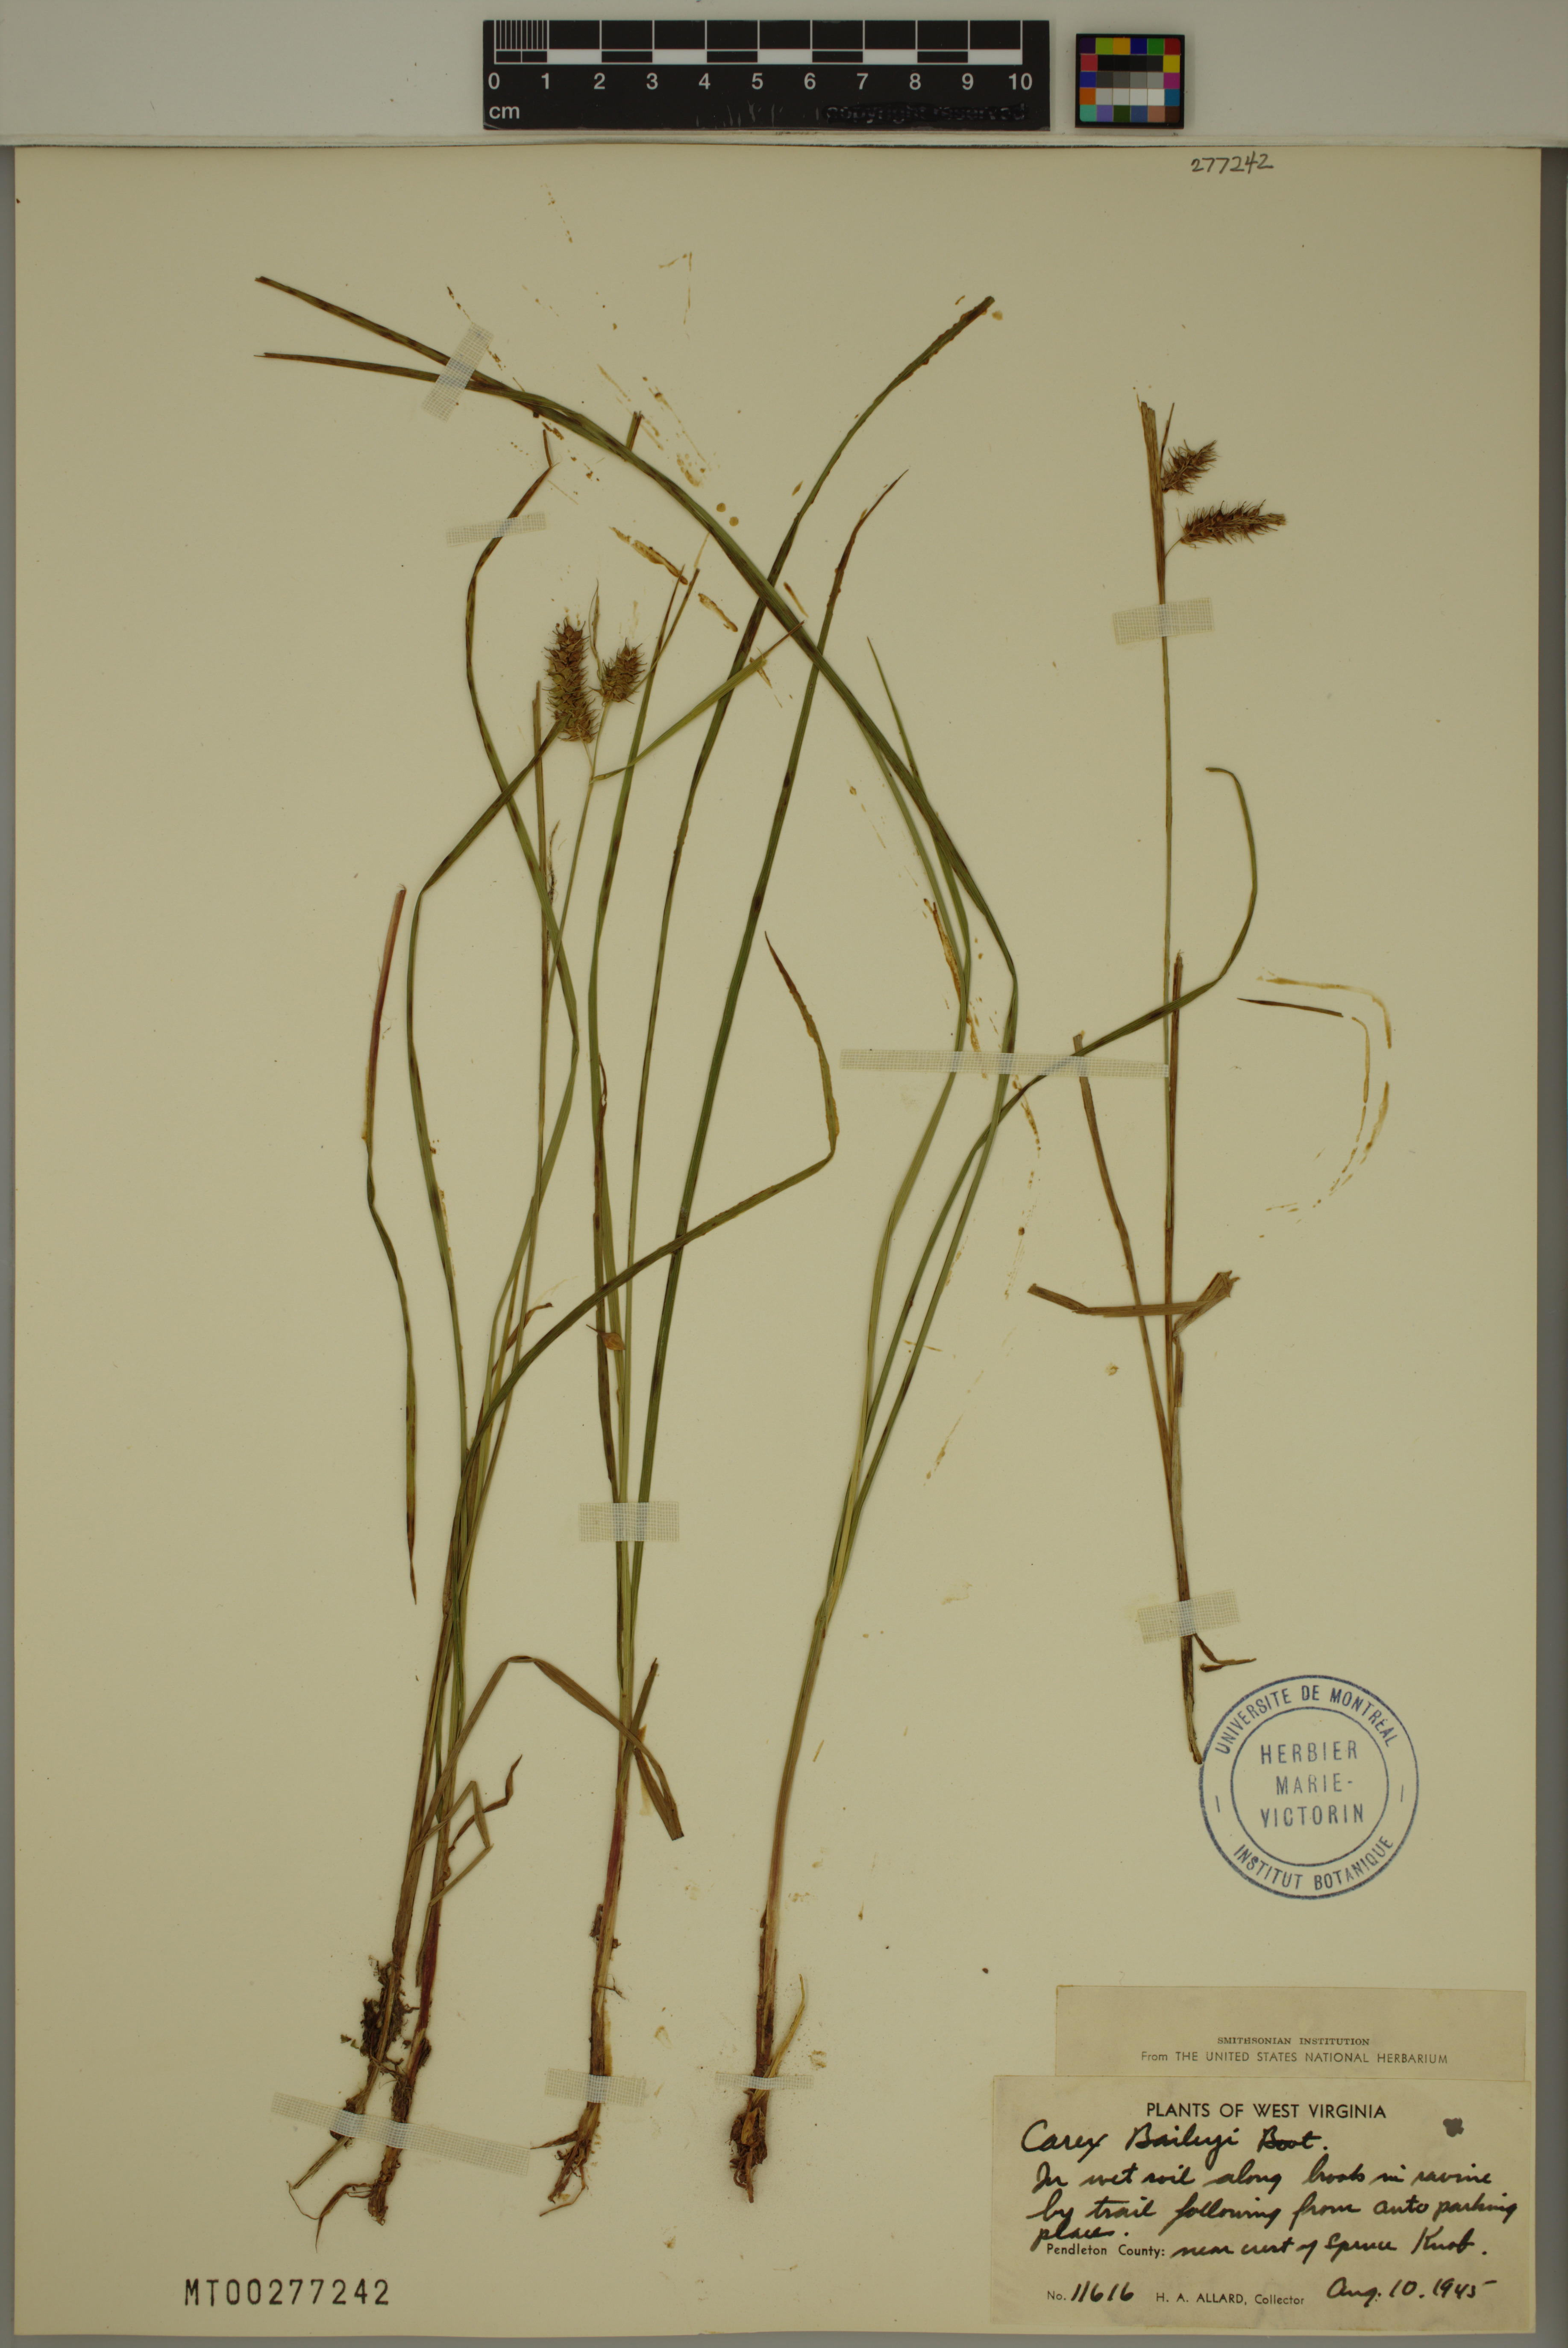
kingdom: Plantae
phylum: Tracheophyta
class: Liliopsida
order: Poales
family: Cyperaceae
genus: Carex
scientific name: Carex baileyi
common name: Bailey's sedge
